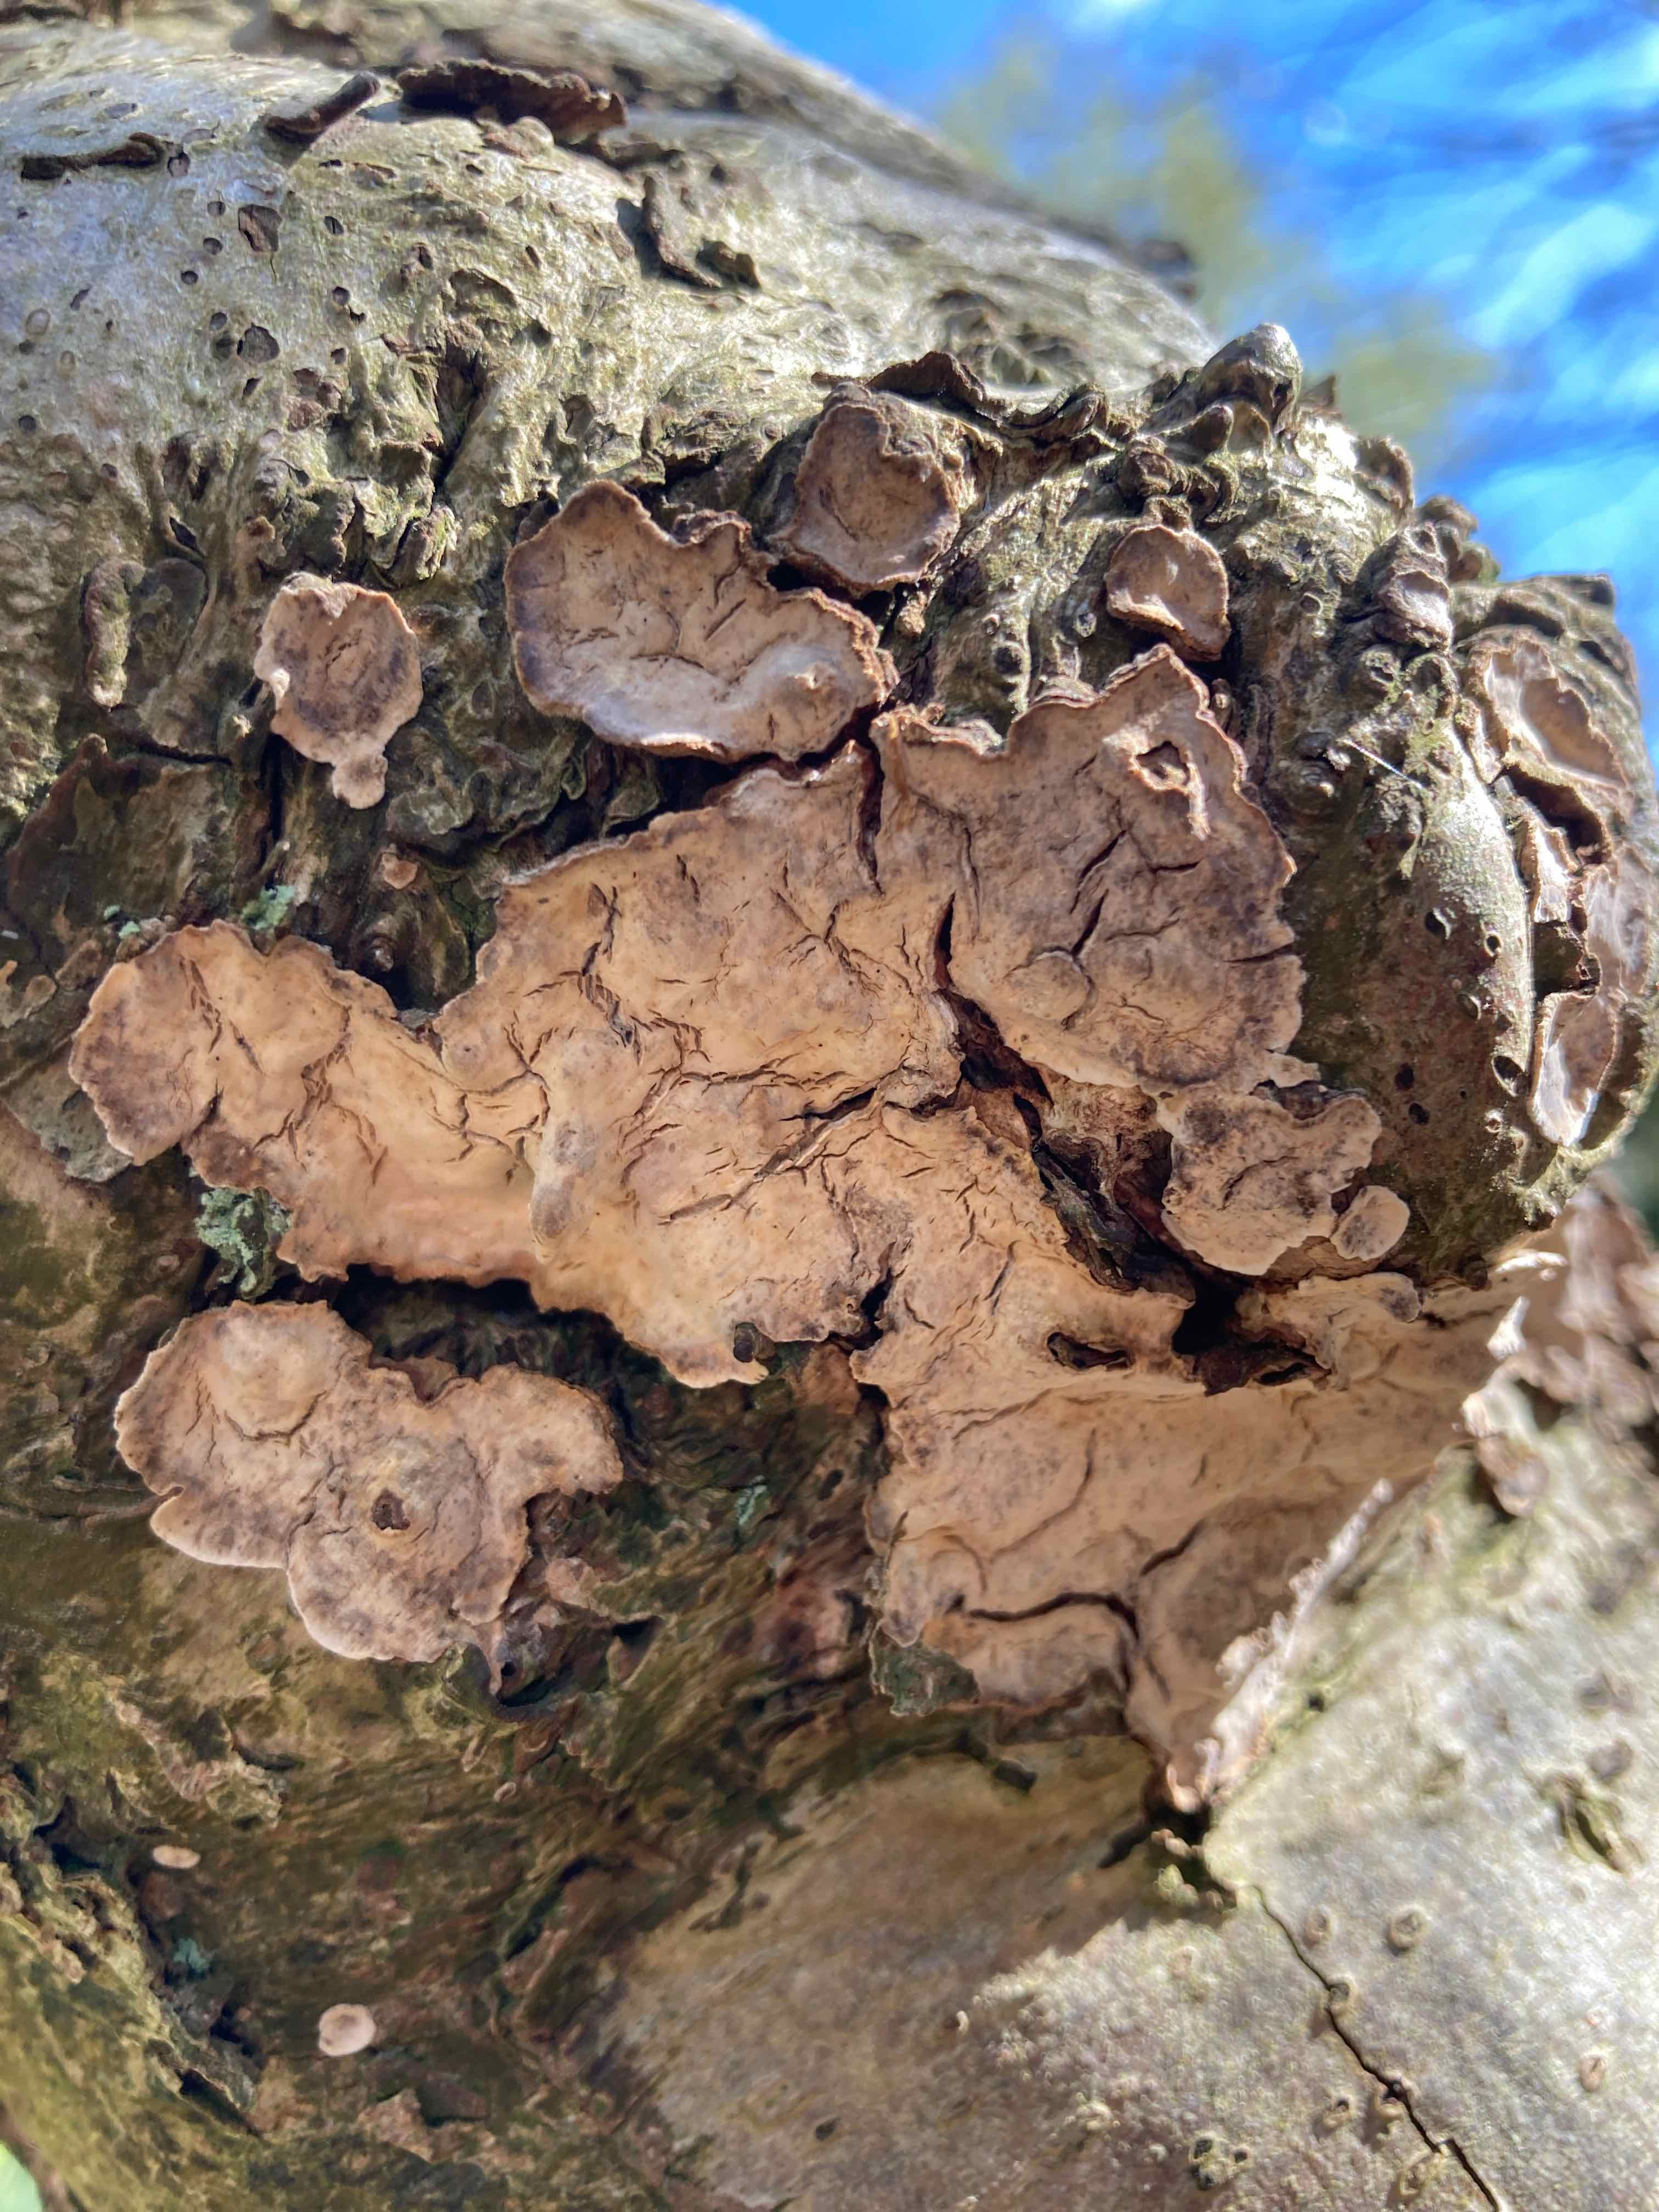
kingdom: Fungi
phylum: Basidiomycota
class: Agaricomycetes
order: Russulales
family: Stereaceae
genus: Stereum
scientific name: Stereum rugosum
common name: rynket lædersvamp
